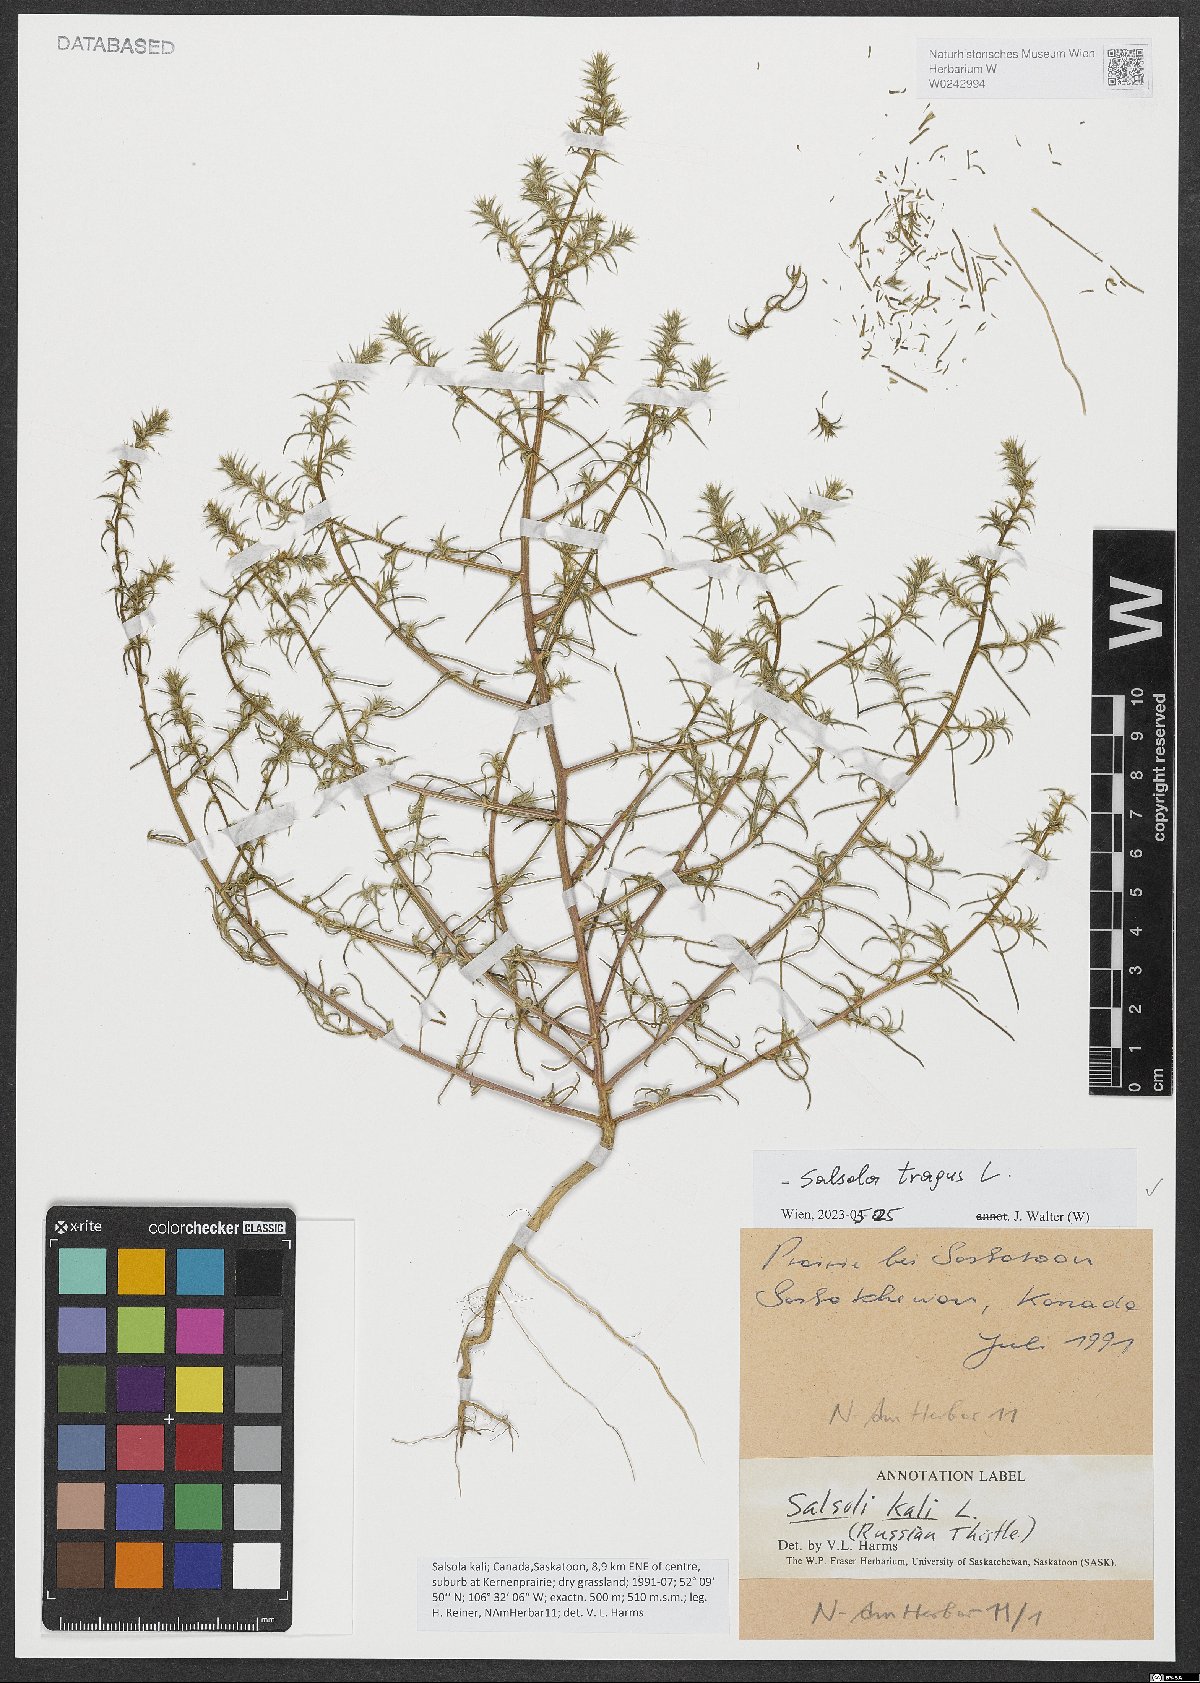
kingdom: Plantae
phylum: Tracheophyta
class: Magnoliopsida
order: Caryophyllales
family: Amaranthaceae
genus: Salsola
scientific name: Salsola tragus
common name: Prickly russian thistle
